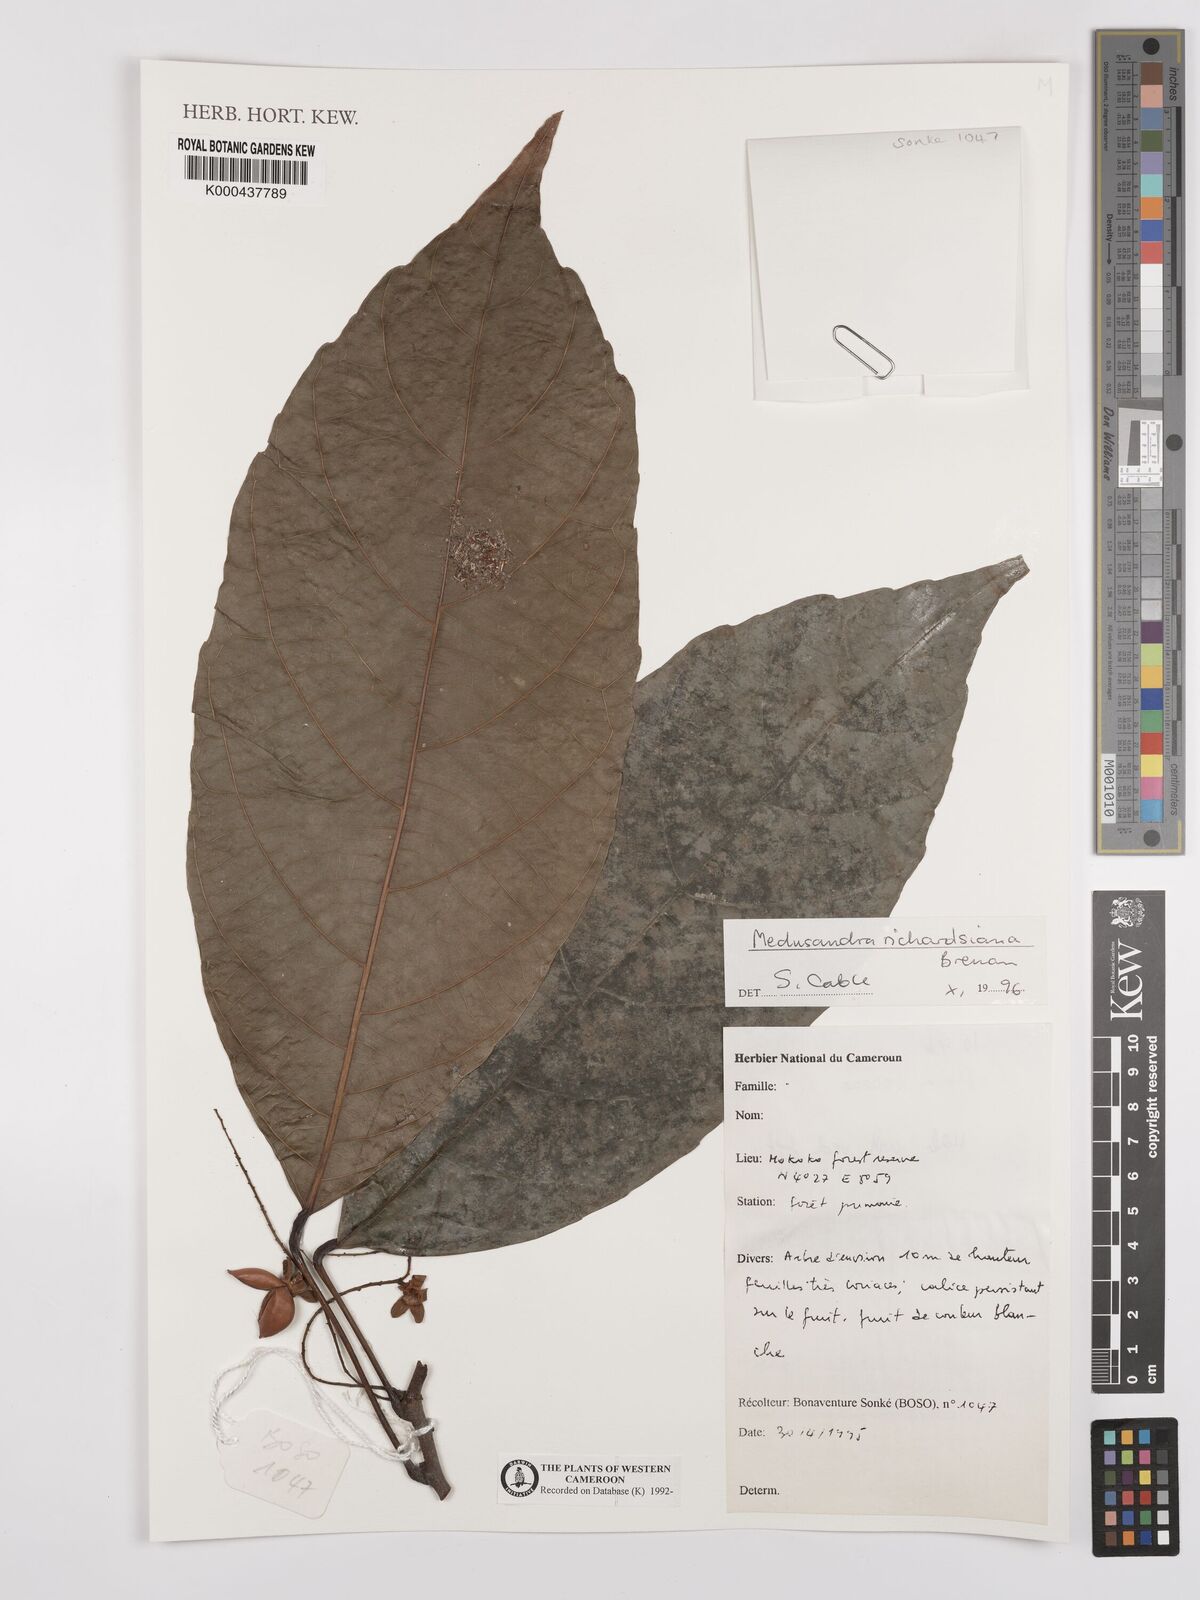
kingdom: Plantae
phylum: Tracheophyta
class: Magnoliopsida
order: Saxifragales
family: Peridiscaceae
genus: Medusandra
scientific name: Medusandra richardsiana
